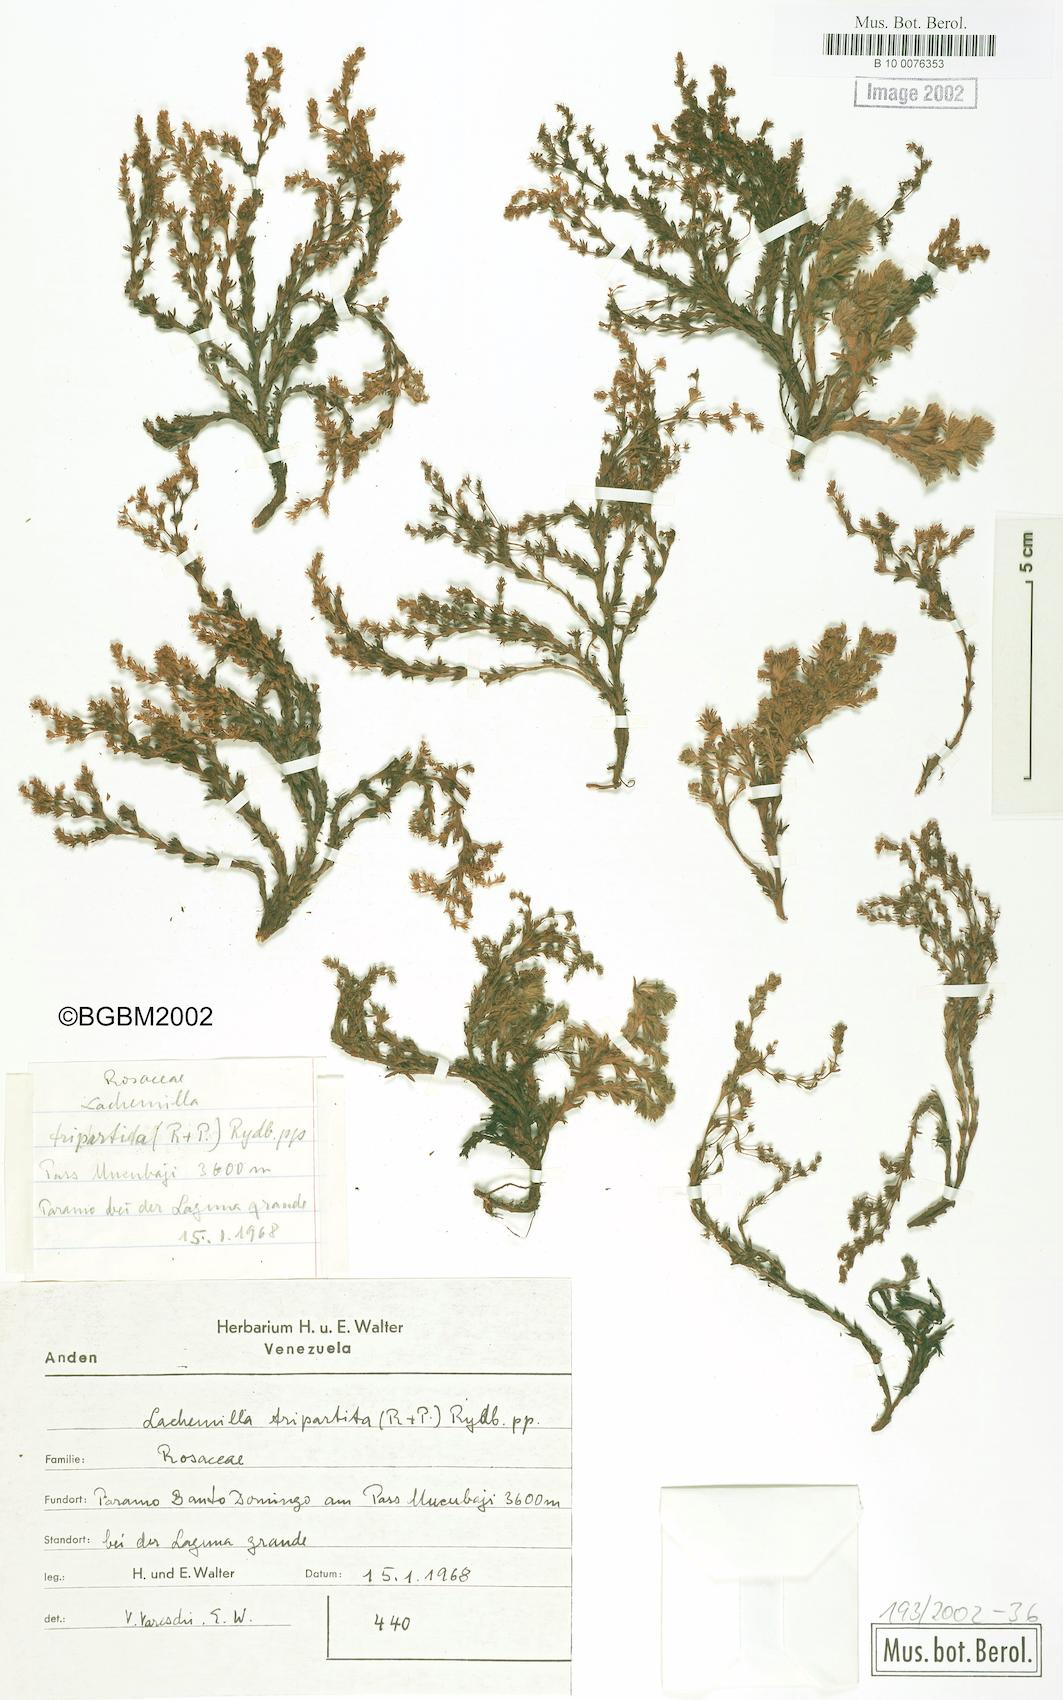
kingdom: Plantae
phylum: Tracheophyta
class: Magnoliopsida
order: Rosales
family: Rosaceae
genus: Lachemilla
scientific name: Lachemilla aphanoides
